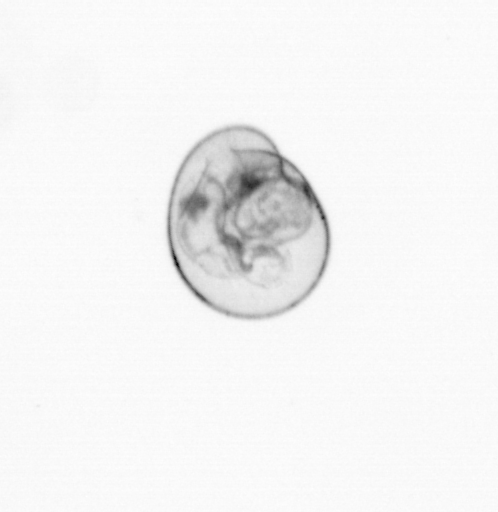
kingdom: Chromista
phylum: Myzozoa
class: Dinophyceae
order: Noctilucales
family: Noctilucaceae
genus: Noctiluca
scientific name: Noctiluca scintillans
